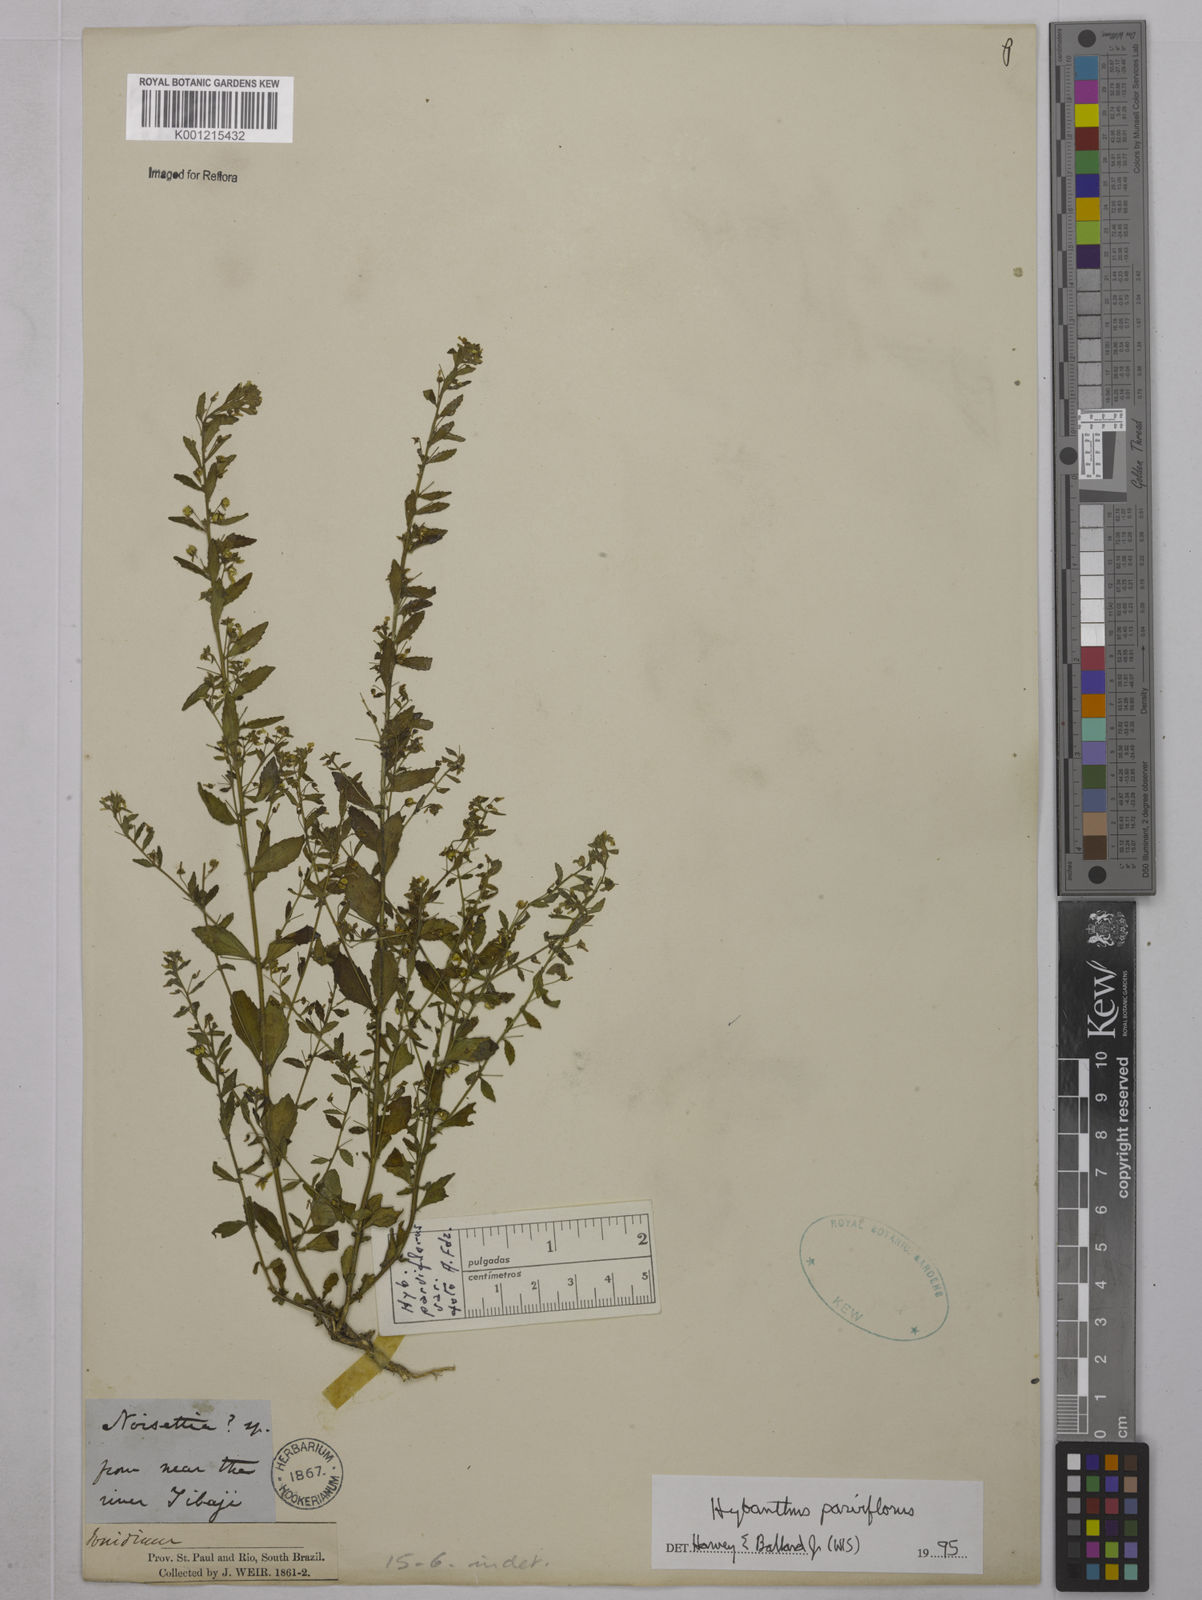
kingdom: Plantae
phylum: Tracheophyta
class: Magnoliopsida
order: Malpighiales
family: Violaceae
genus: Pombalia
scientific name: Pombalia parviflora
